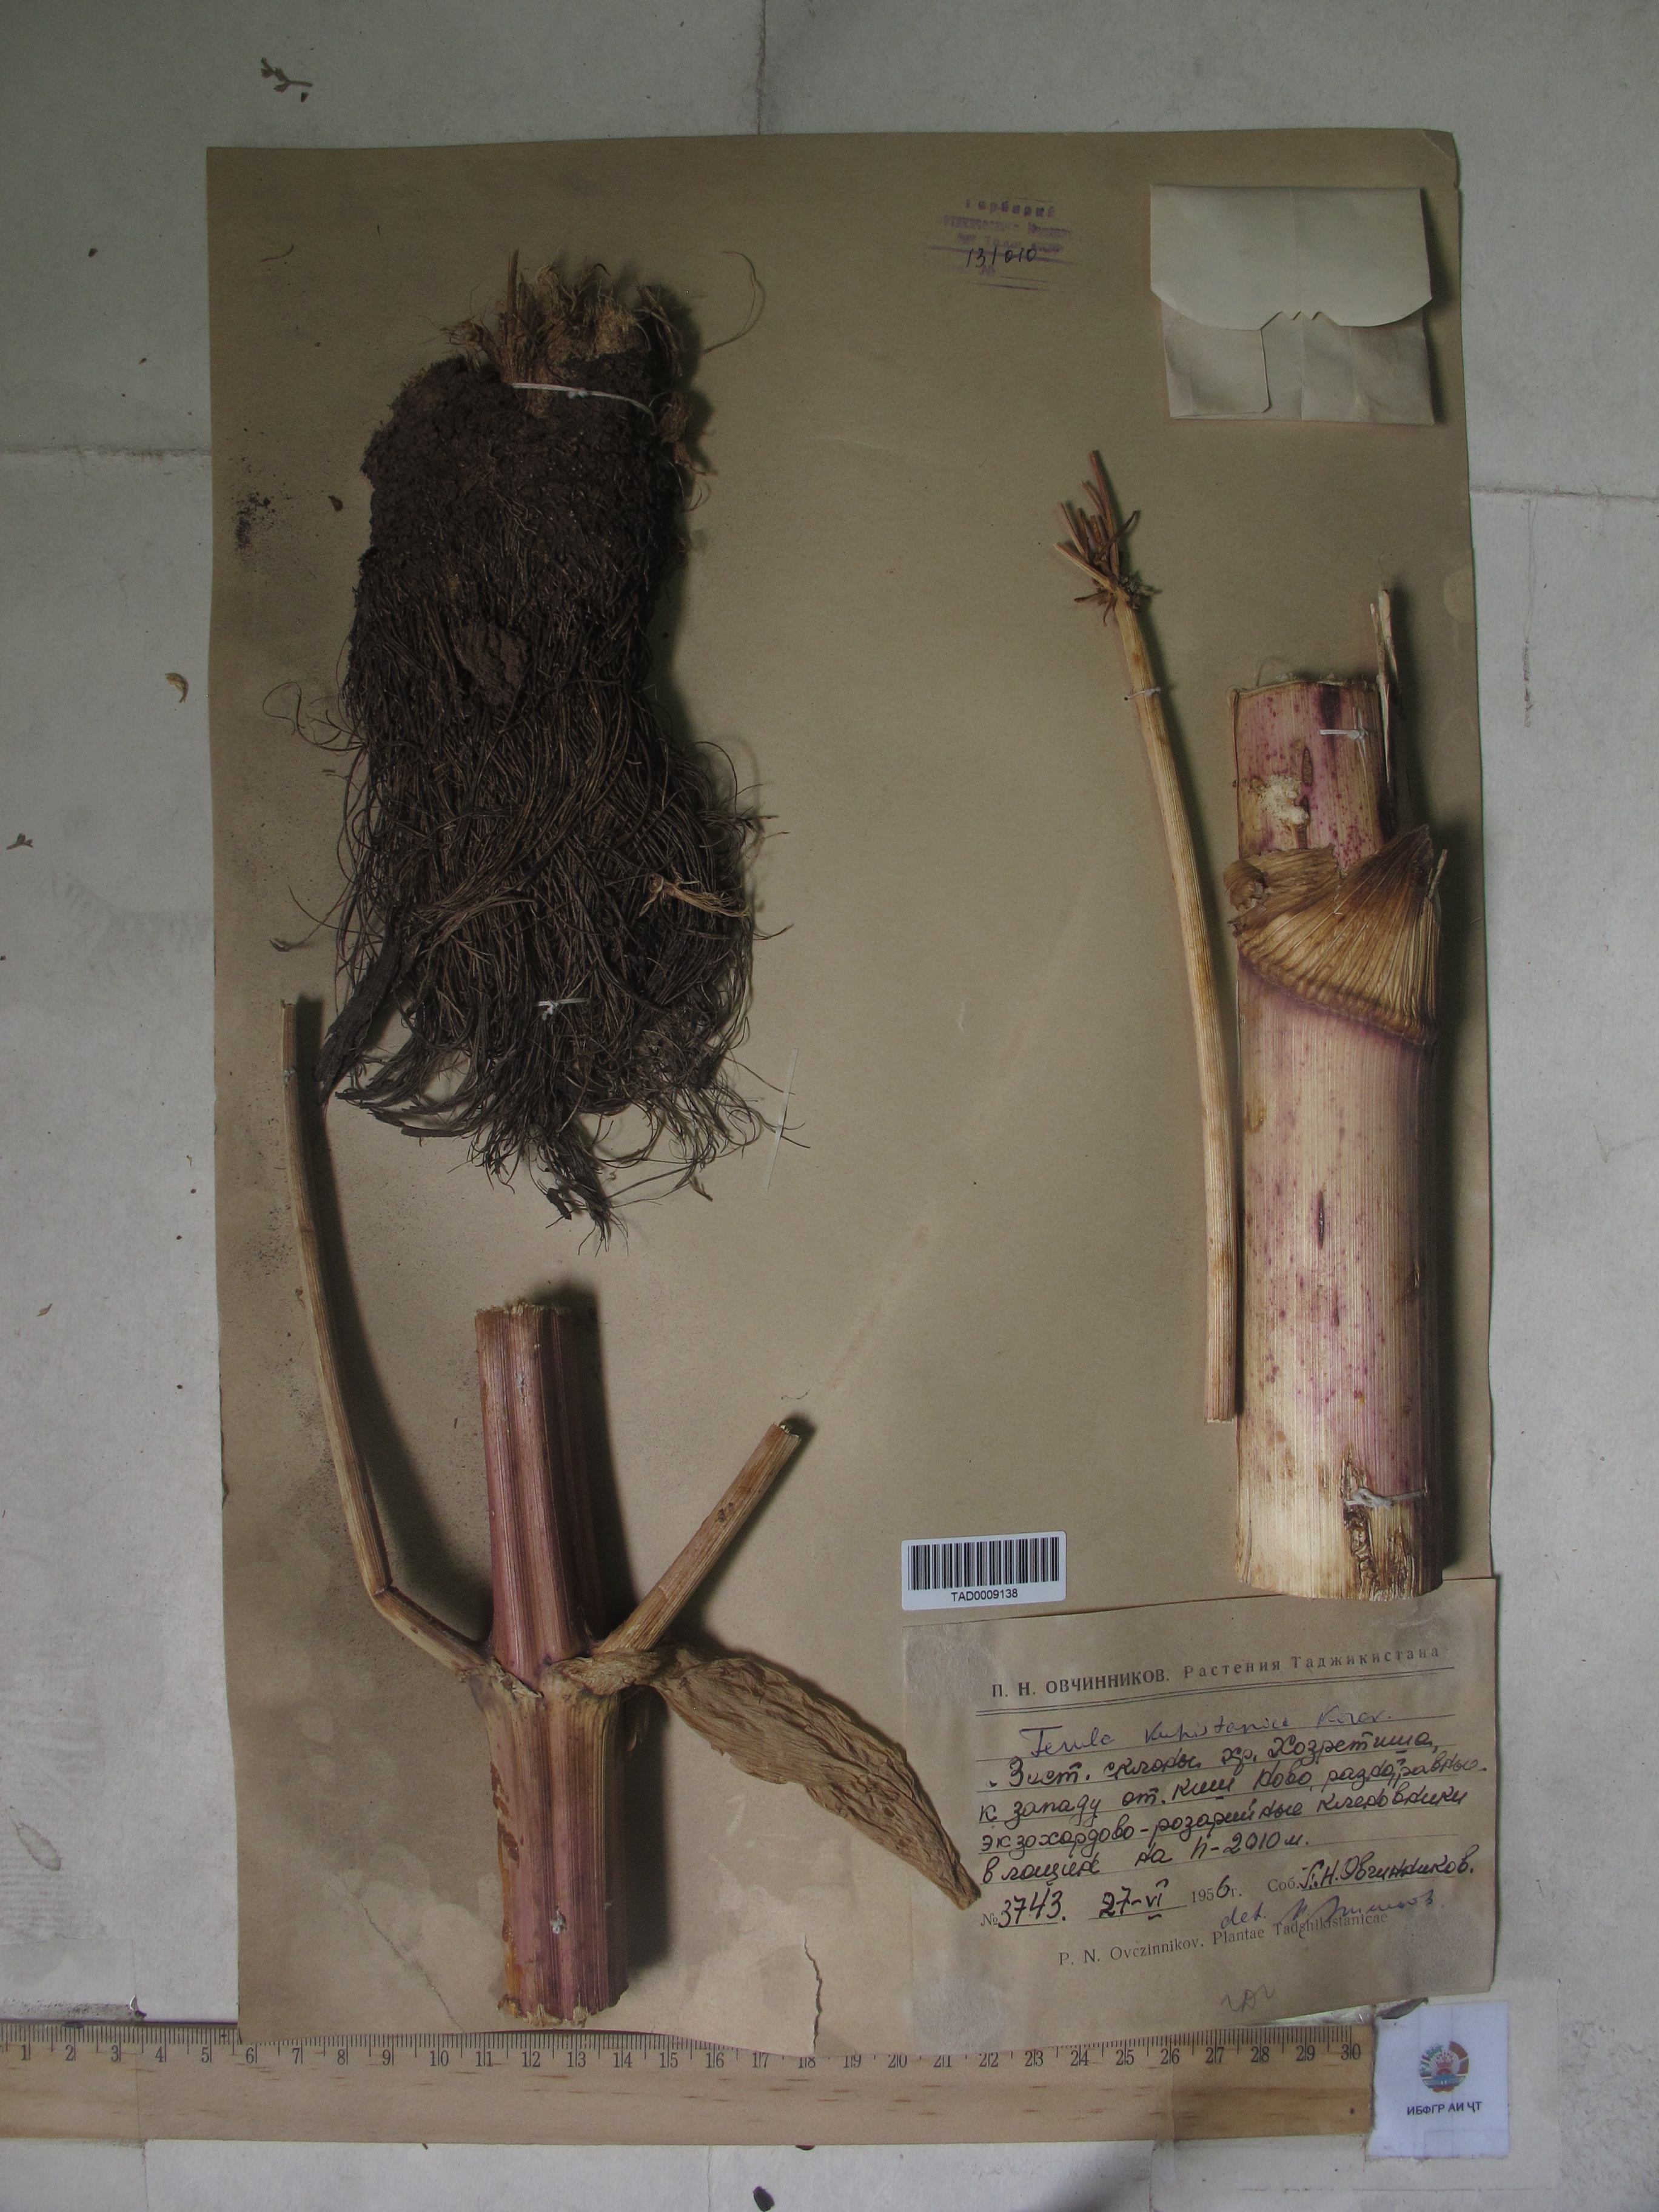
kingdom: Plantae
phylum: Tracheophyta
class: Magnoliopsida
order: Apiales
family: Apiaceae
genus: Ferula
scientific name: Ferula kuhistanica
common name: Kamol
